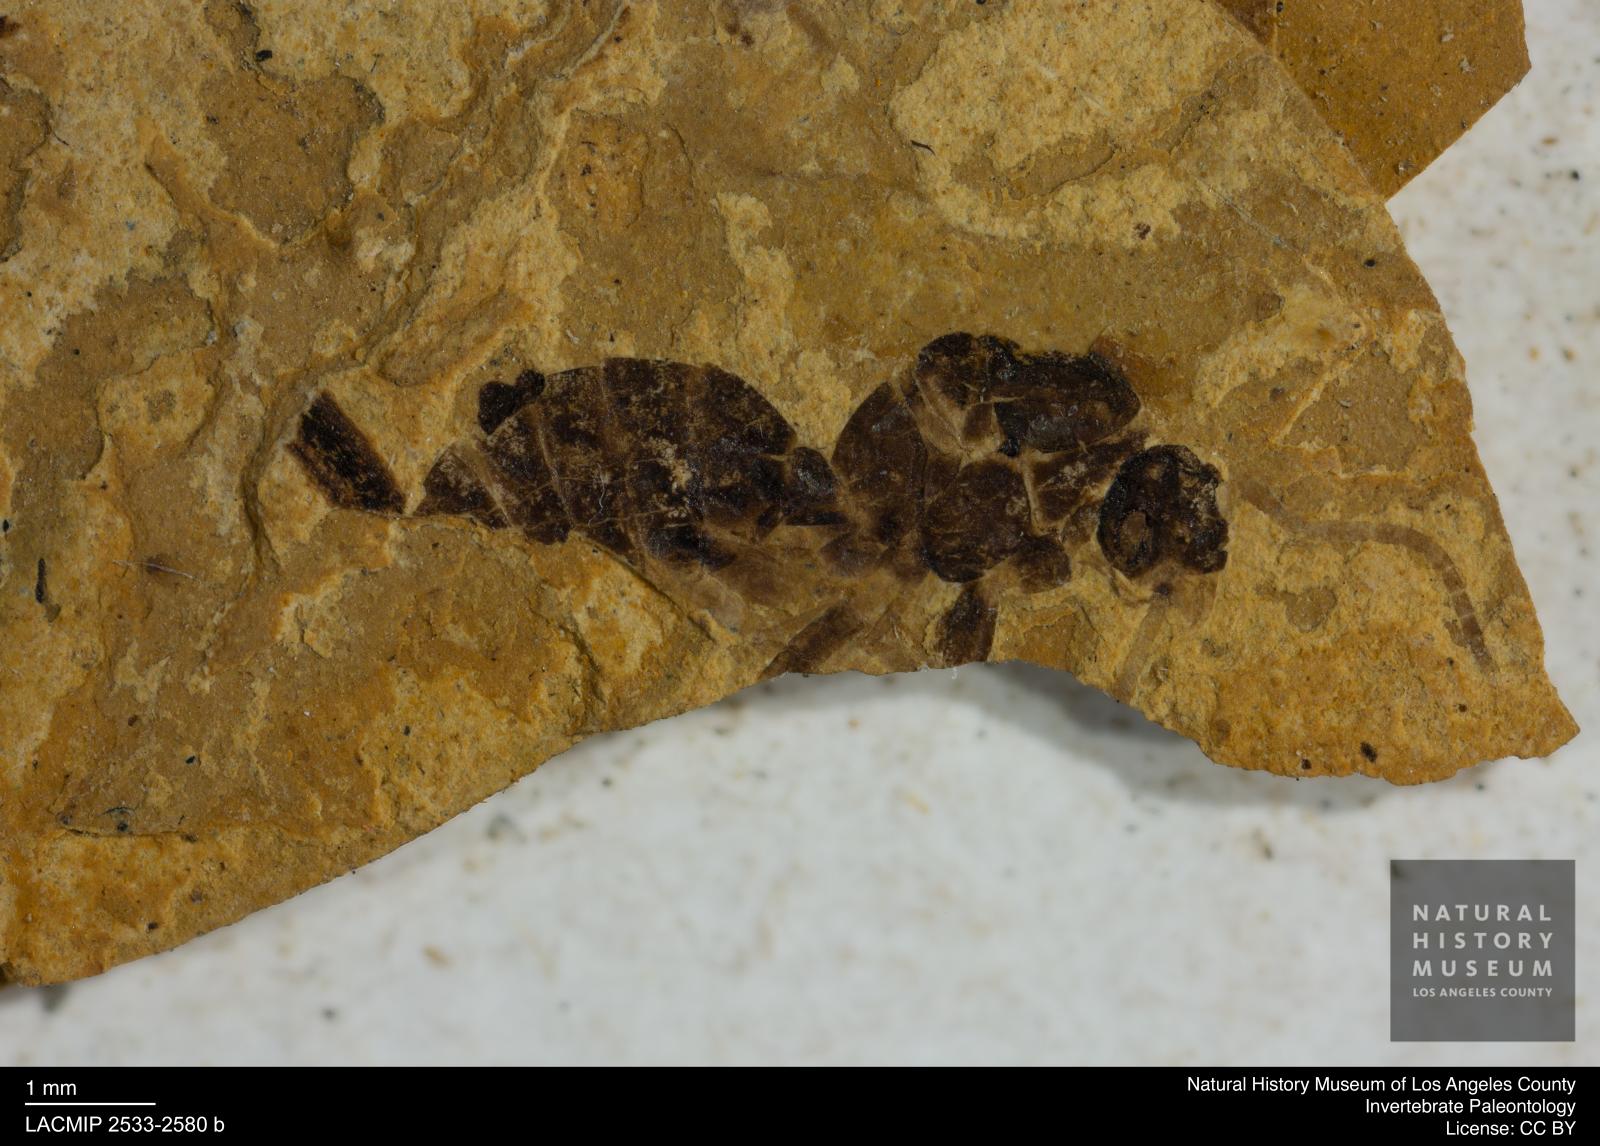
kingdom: Animalia
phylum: Arthropoda
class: Insecta
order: Hymenoptera
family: Formicidae
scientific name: Formicidae
